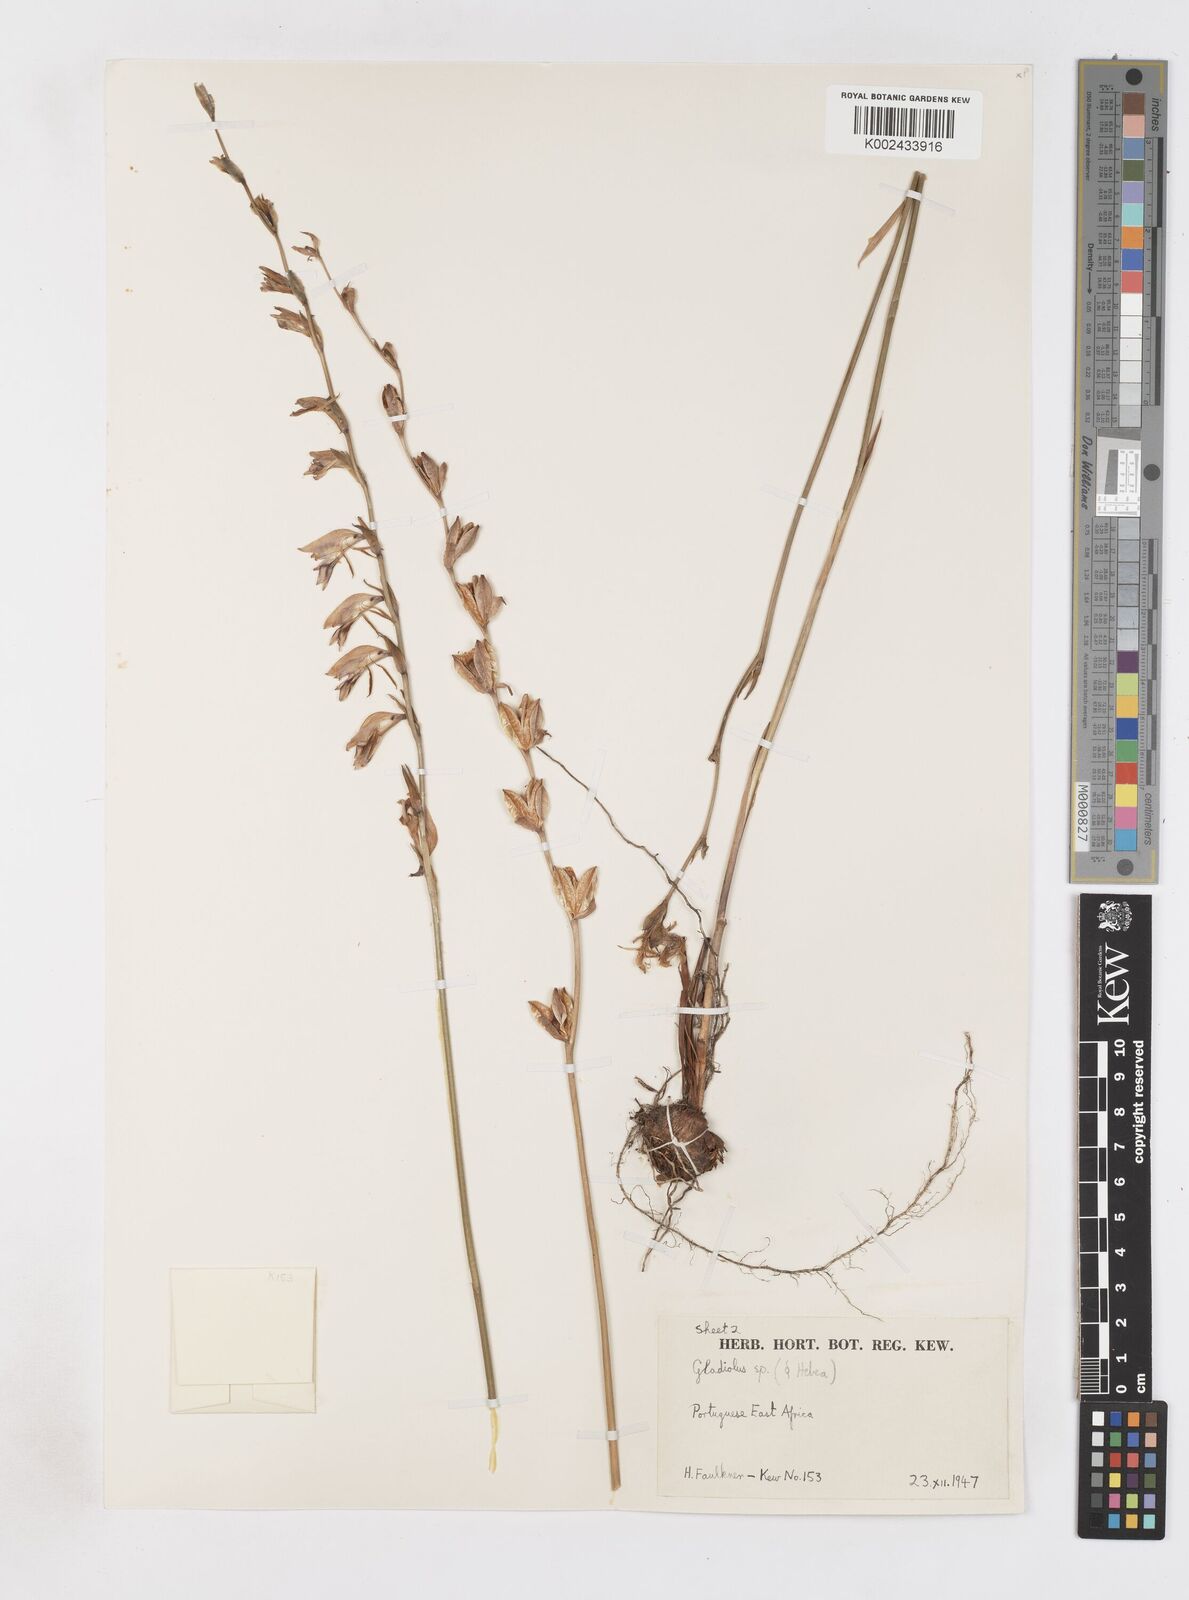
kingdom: Plantae
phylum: Tracheophyta
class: Liliopsida
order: Asparagales
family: Iridaceae
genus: Gladiolus
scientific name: Gladiolus atropurpureus
